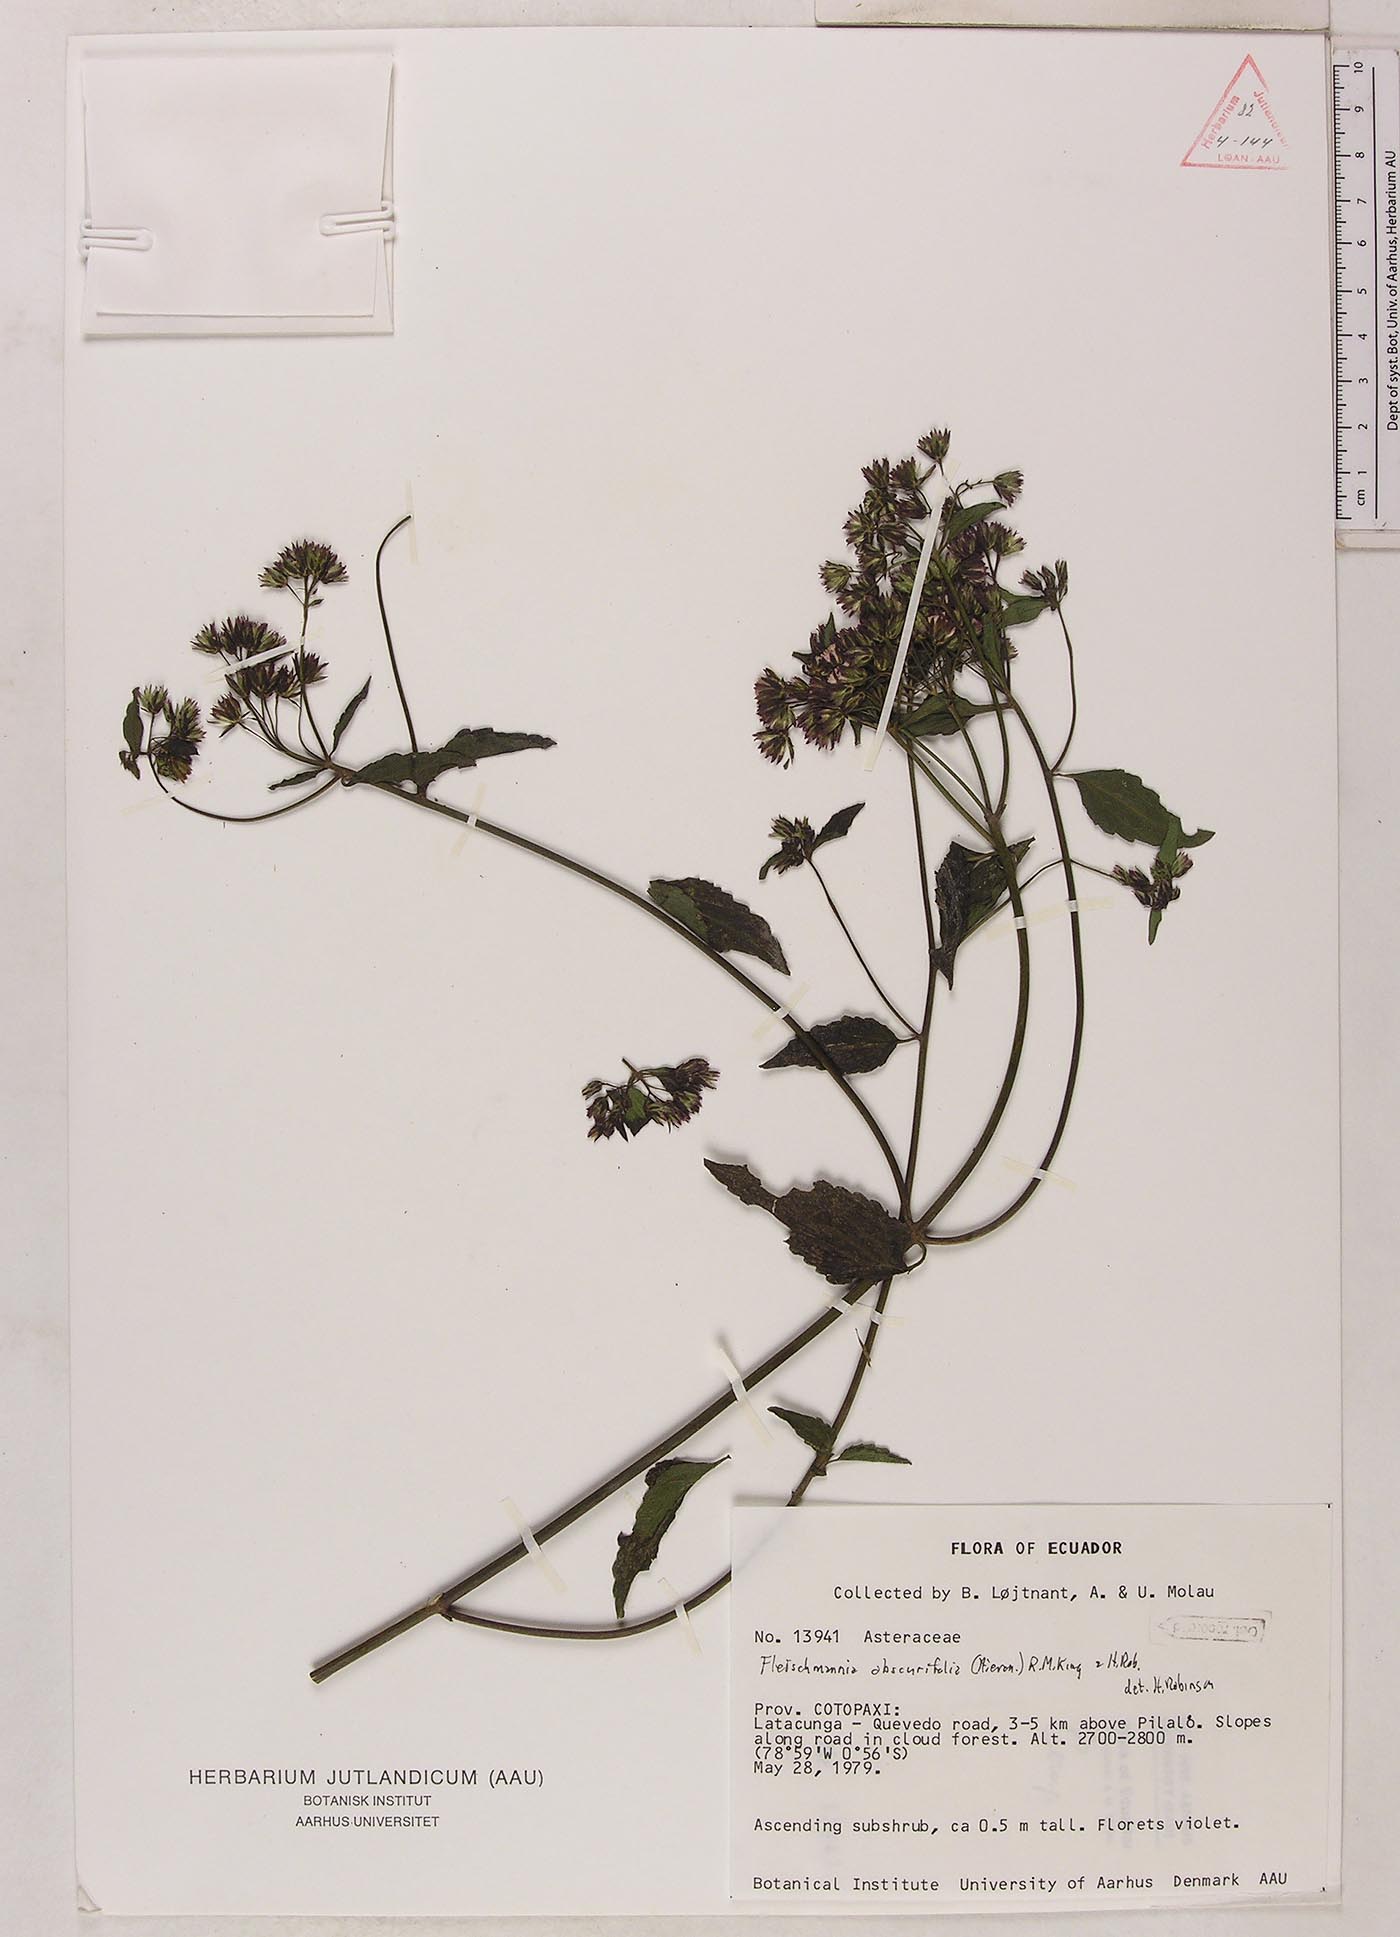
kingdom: Plantae
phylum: Tracheophyta
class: Magnoliopsida
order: Asterales
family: Asteraceae
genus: Fleischmannia
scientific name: Fleischmannia obscurifolia
